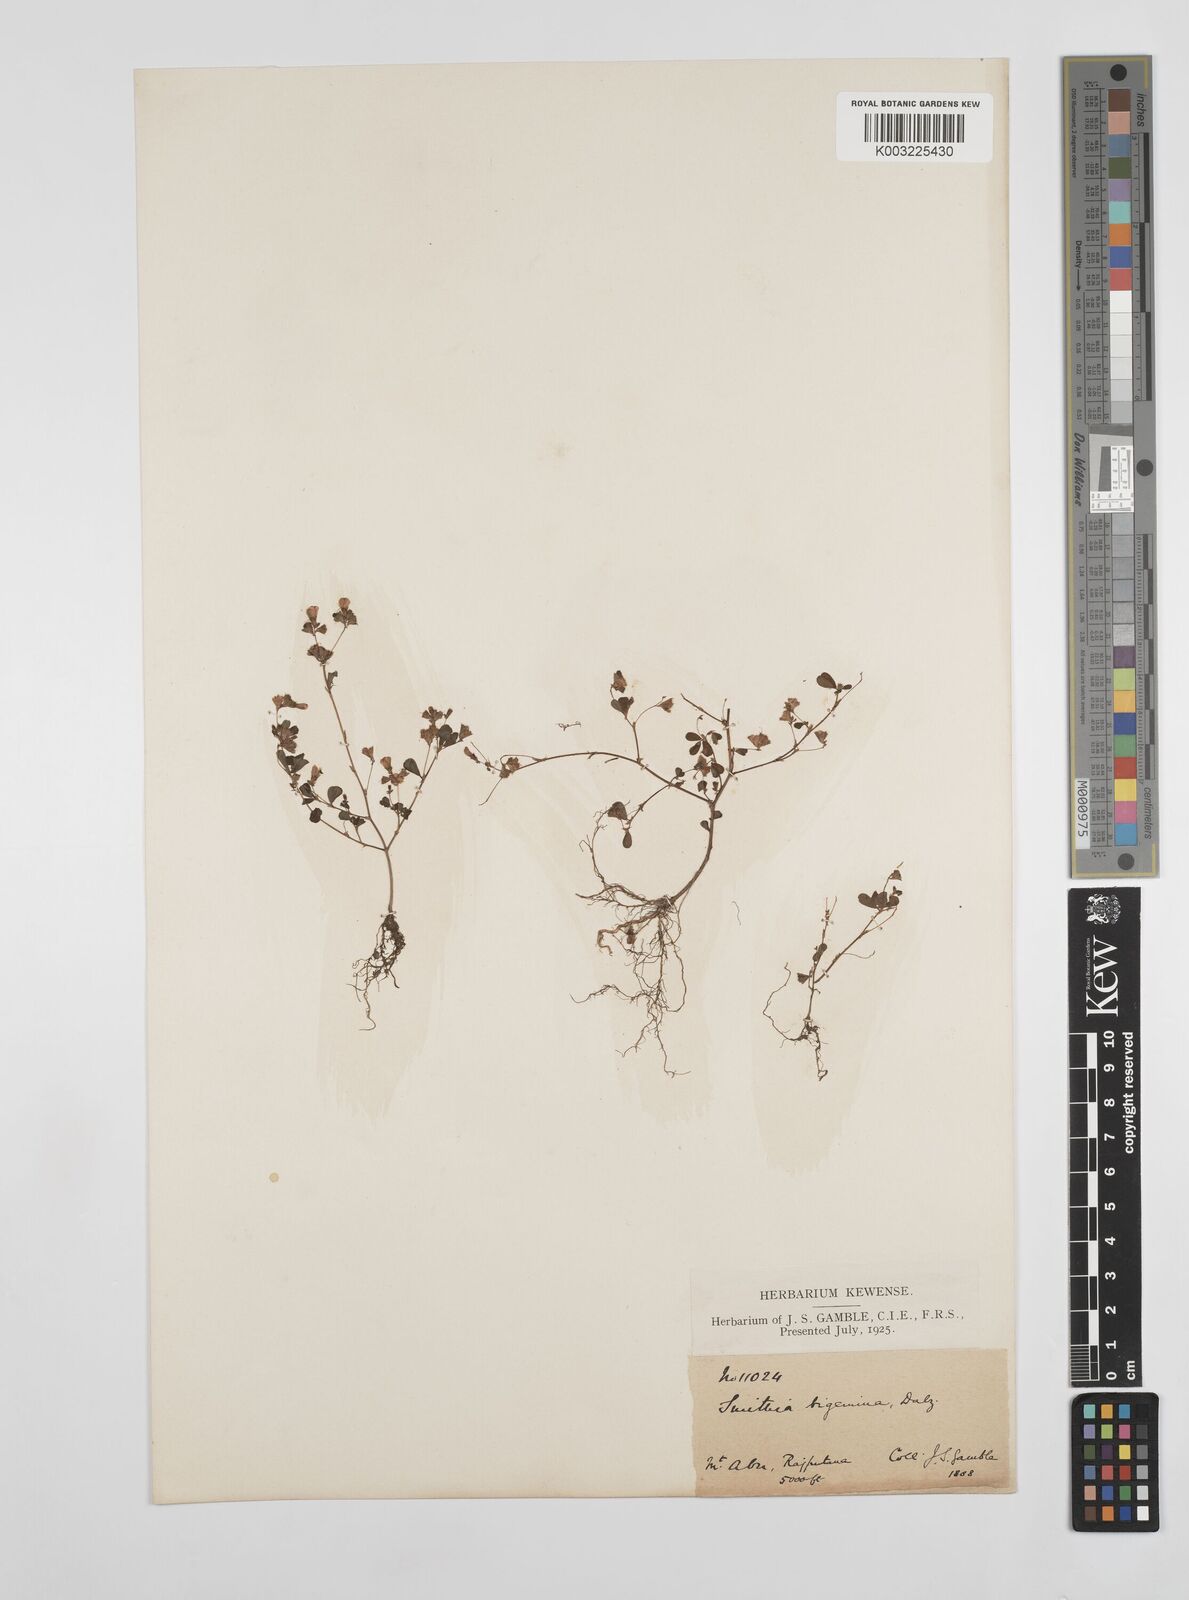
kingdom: Plantae
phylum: Tracheophyta
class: Magnoliopsida
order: Fabales
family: Fabaceae
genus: Smithia
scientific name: Smithia bigemina
